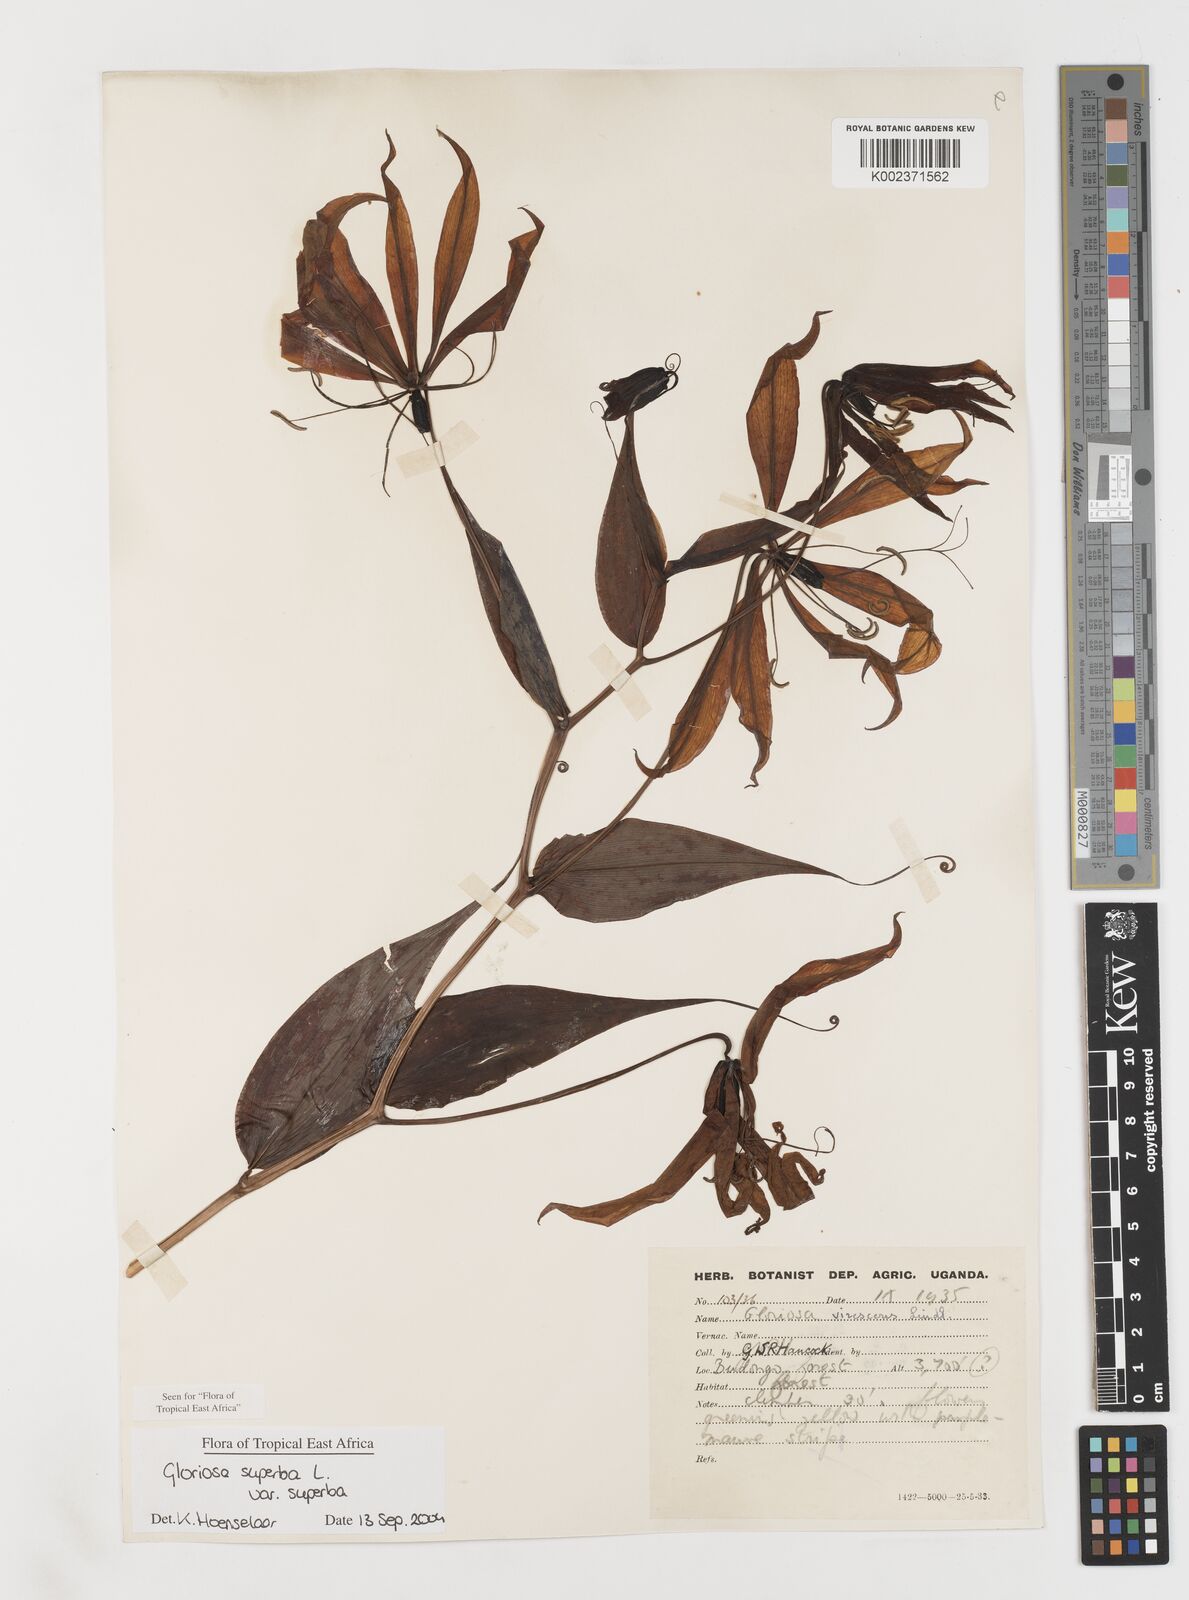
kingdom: Plantae
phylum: Tracheophyta
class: Liliopsida
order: Liliales
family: Colchicaceae
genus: Gloriosa
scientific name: Gloriosa simplex
